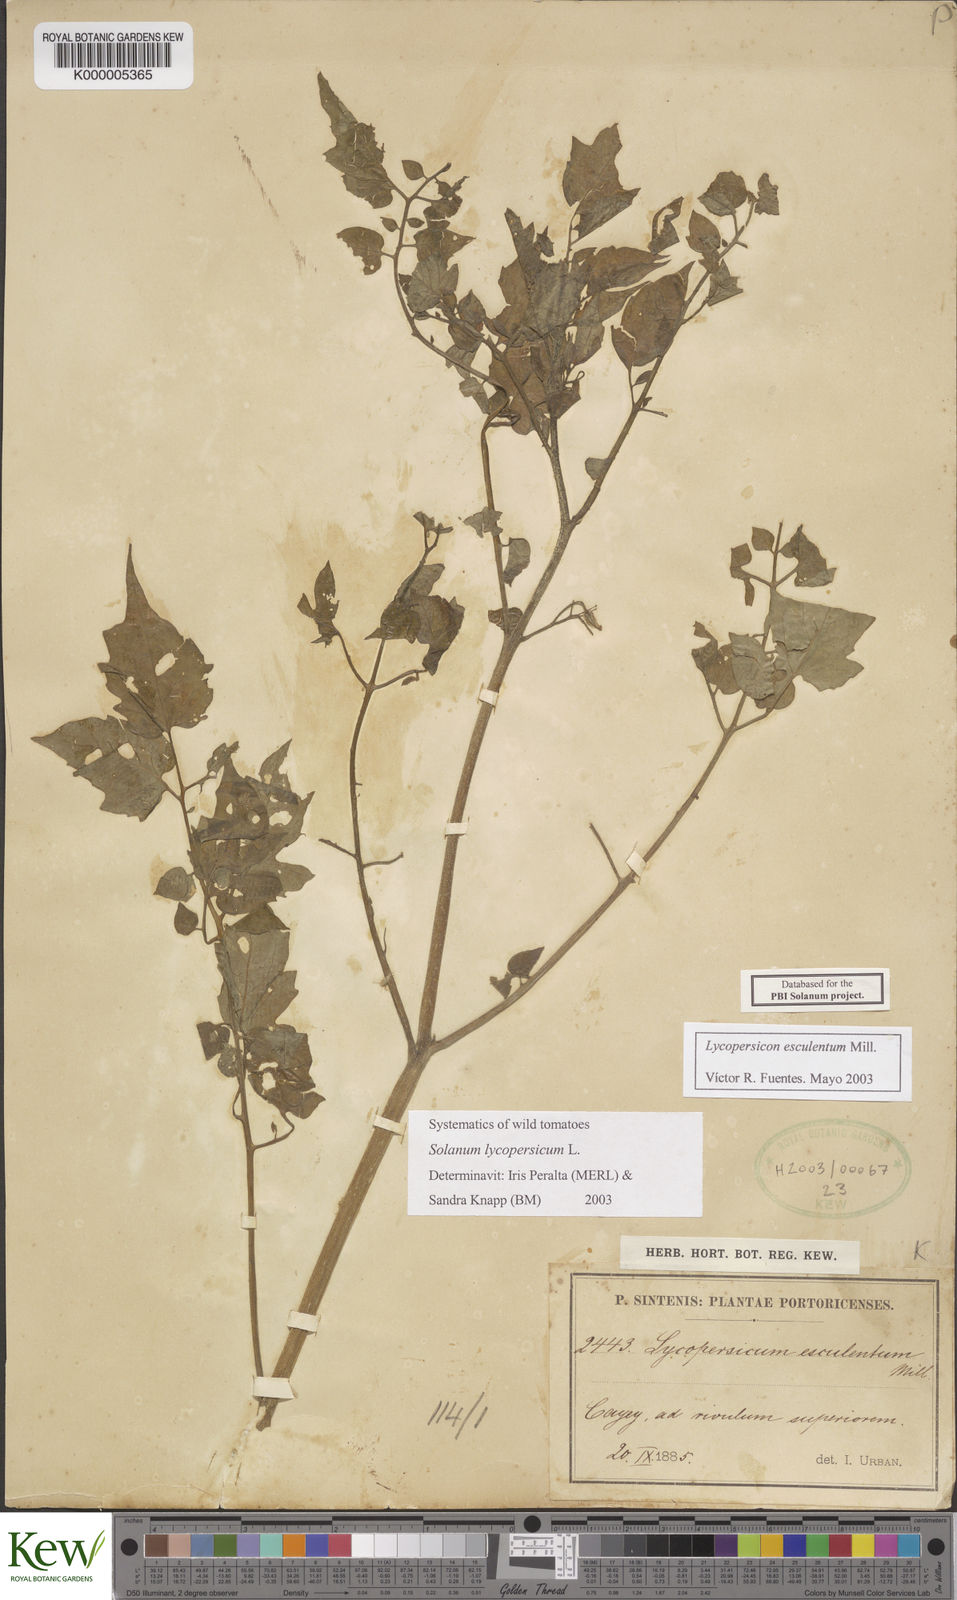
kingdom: Plantae
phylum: Tracheophyta
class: Magnoliopsida
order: Solanales
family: Solanaceae
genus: Solanum
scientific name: Solanum lycopersicum
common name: Garden tomato
